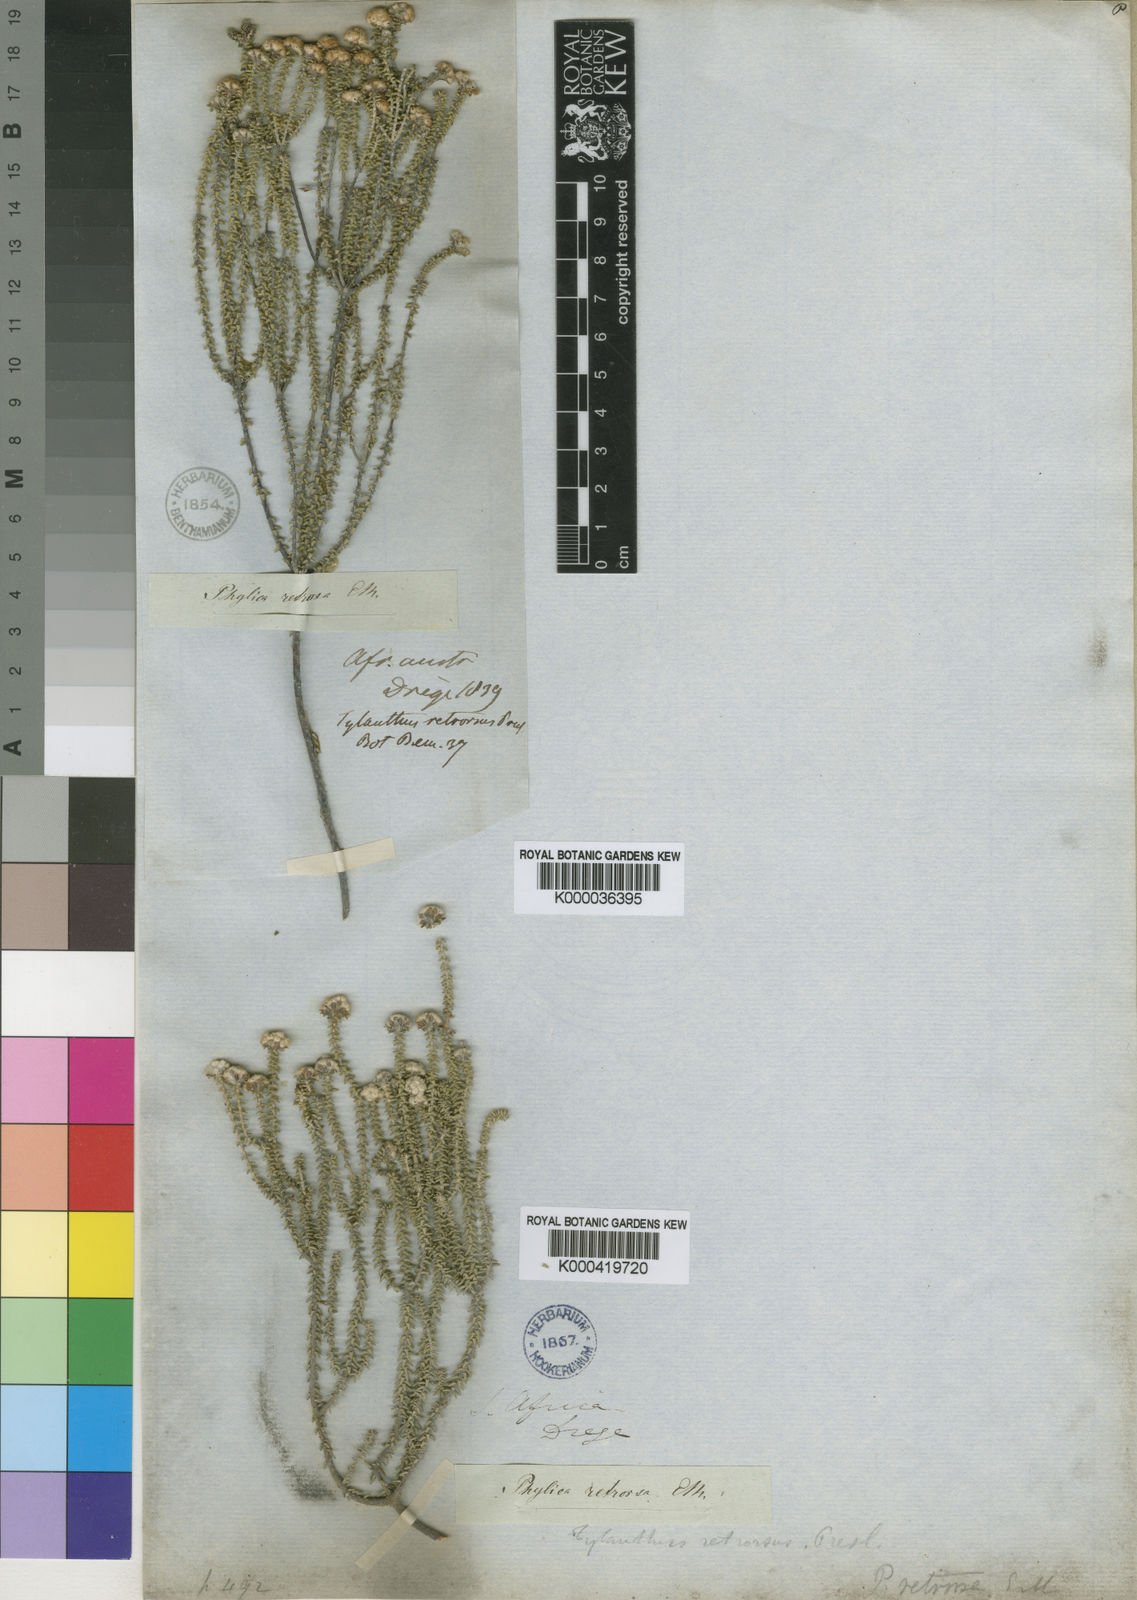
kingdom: Plantae
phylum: Tracheophyta
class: Magnoliopsida
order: Rosales
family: Rhamnaceae
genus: Phylica
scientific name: Phylica retrorsa
